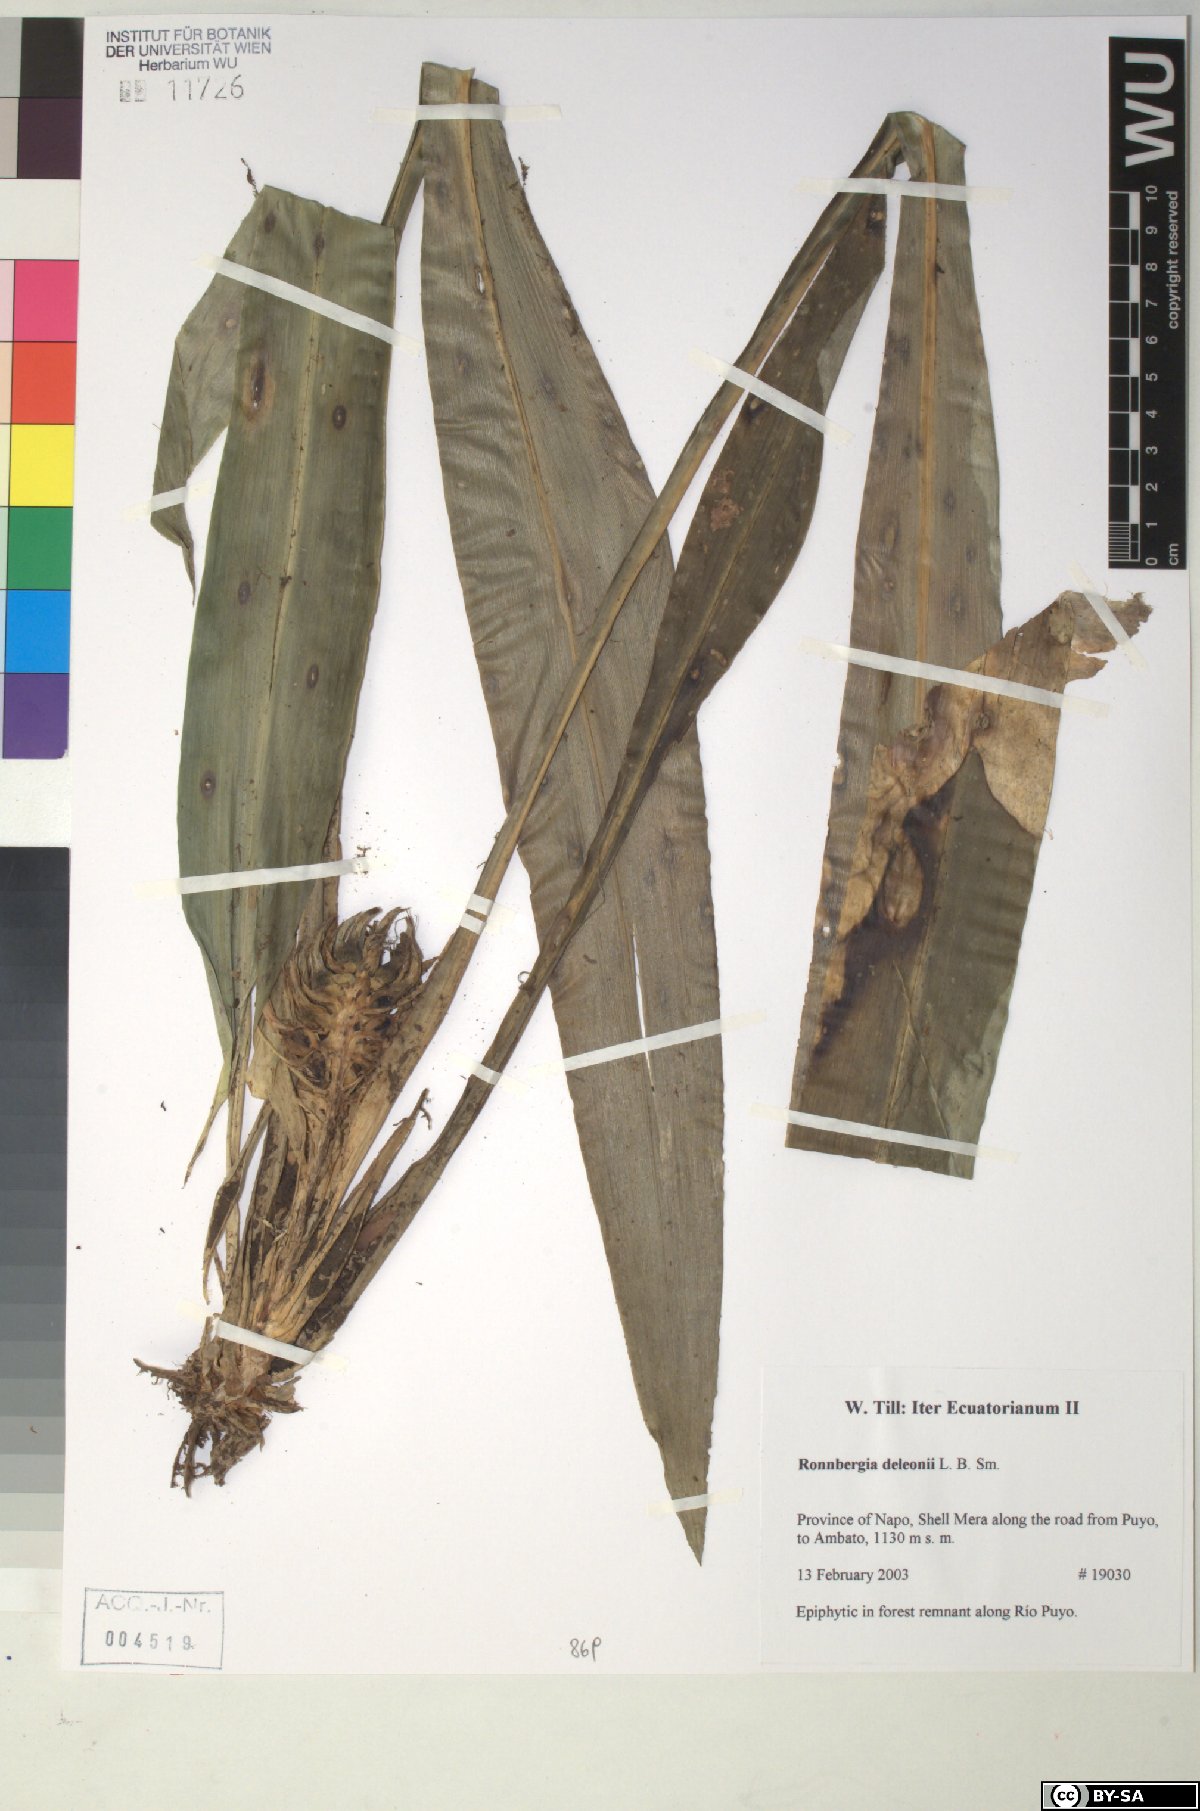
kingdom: Plantae
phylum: Tracheophyta
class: Liliopsida
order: Poales
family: Bromeliaceae
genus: Ronnbergia
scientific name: Ronnbergia deleonii
